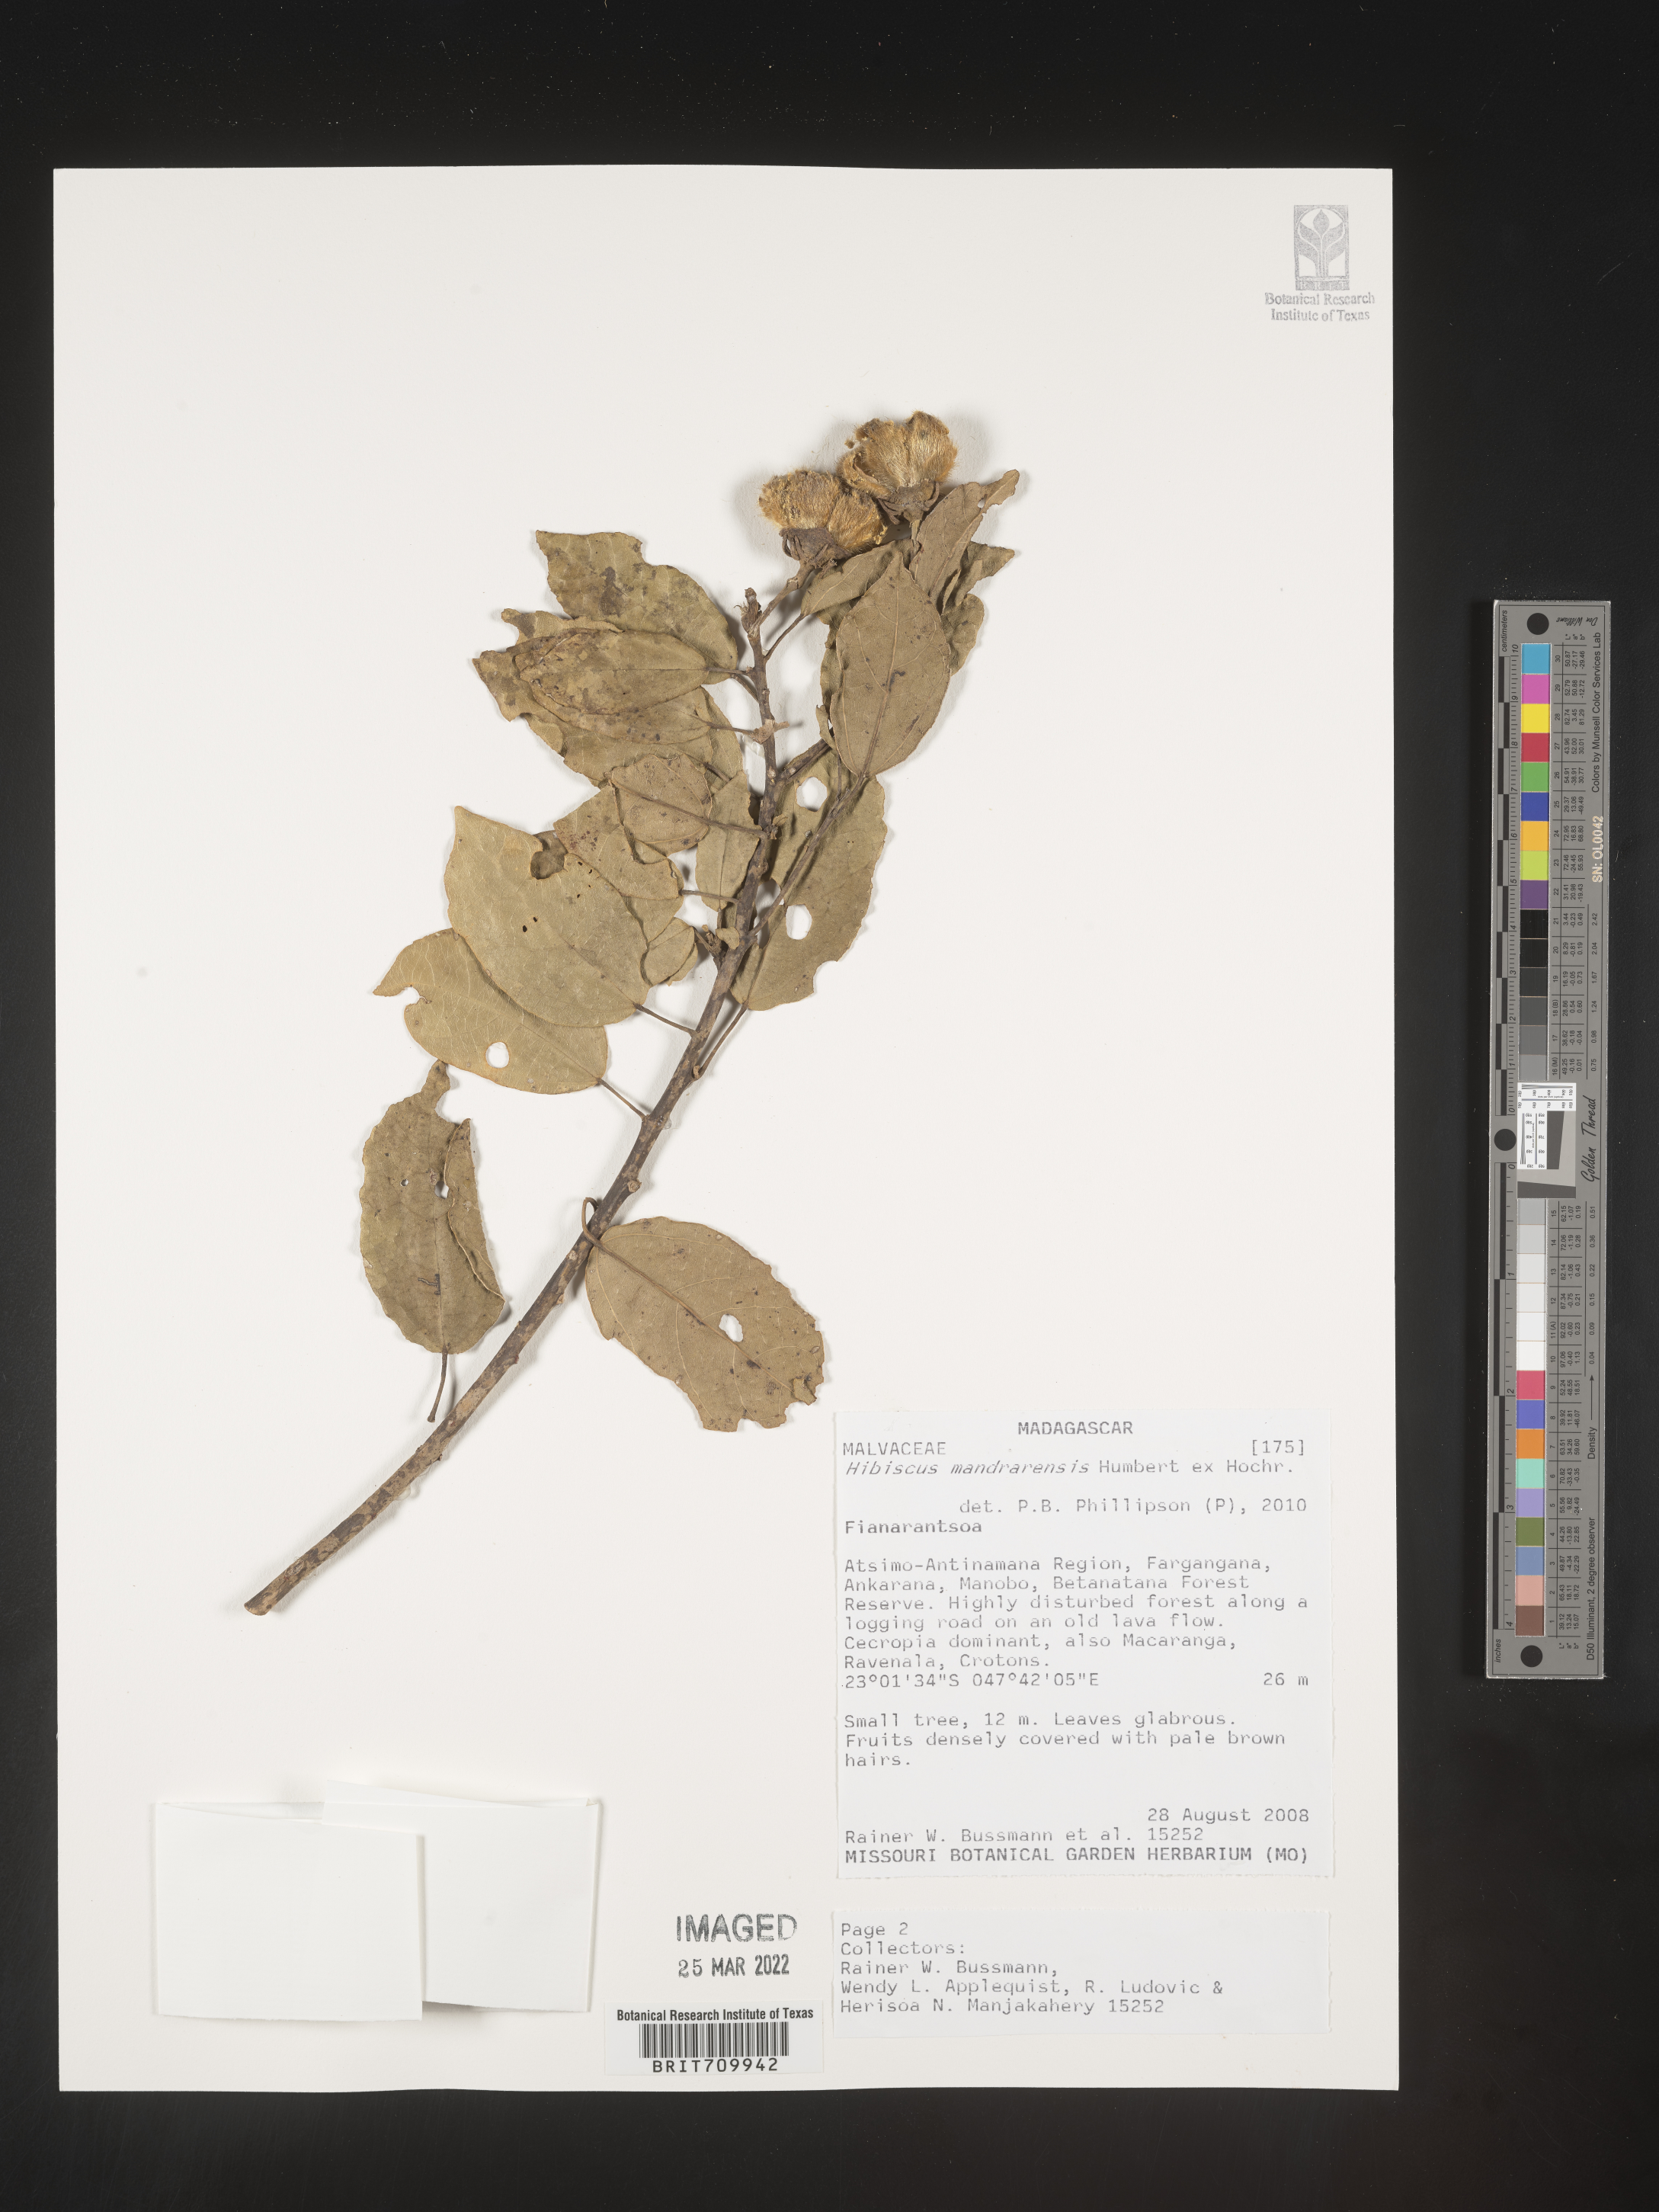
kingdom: Plantae
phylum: Tracheophyta
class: Magnoliopsida
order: Malvales
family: Malvaceae
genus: Hibiscus
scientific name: Hibiscus
